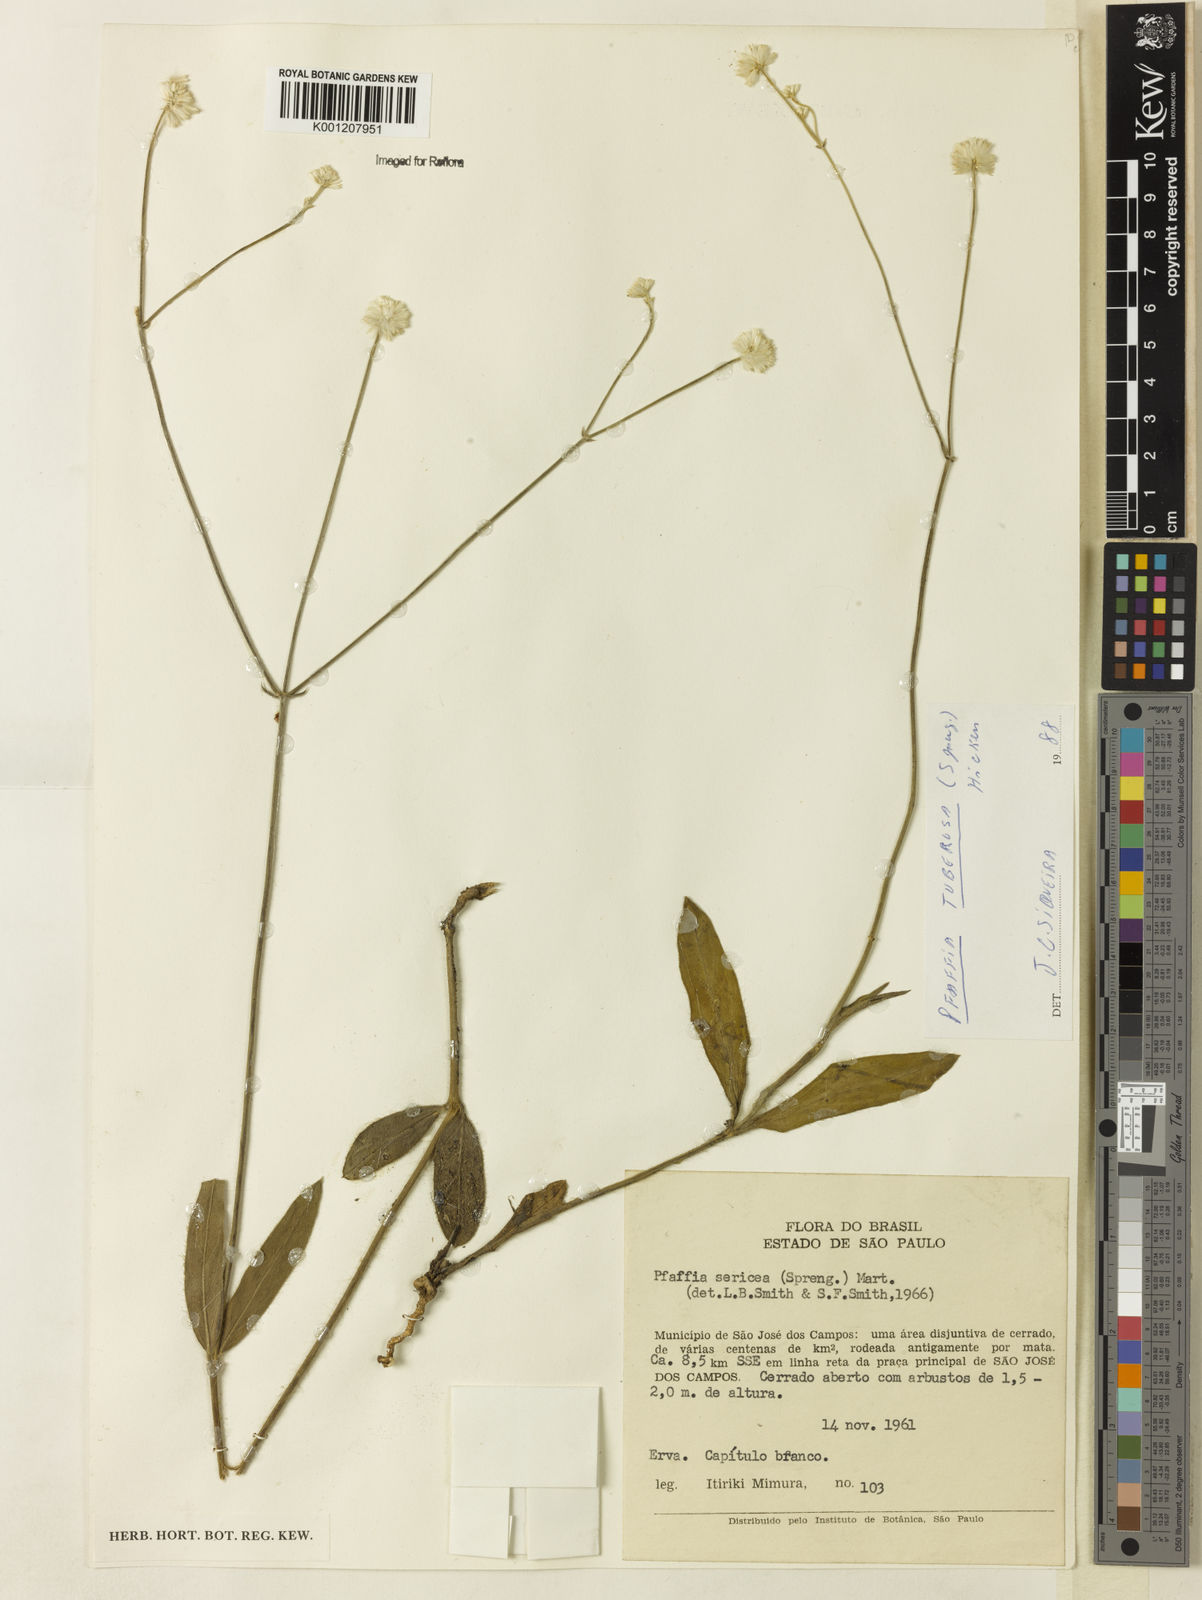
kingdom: Plantae
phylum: Tracheophyta
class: Magnoliopsida
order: Caryophyllales
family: Amaranthaceae
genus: Pfaffia
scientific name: Pfaffia
